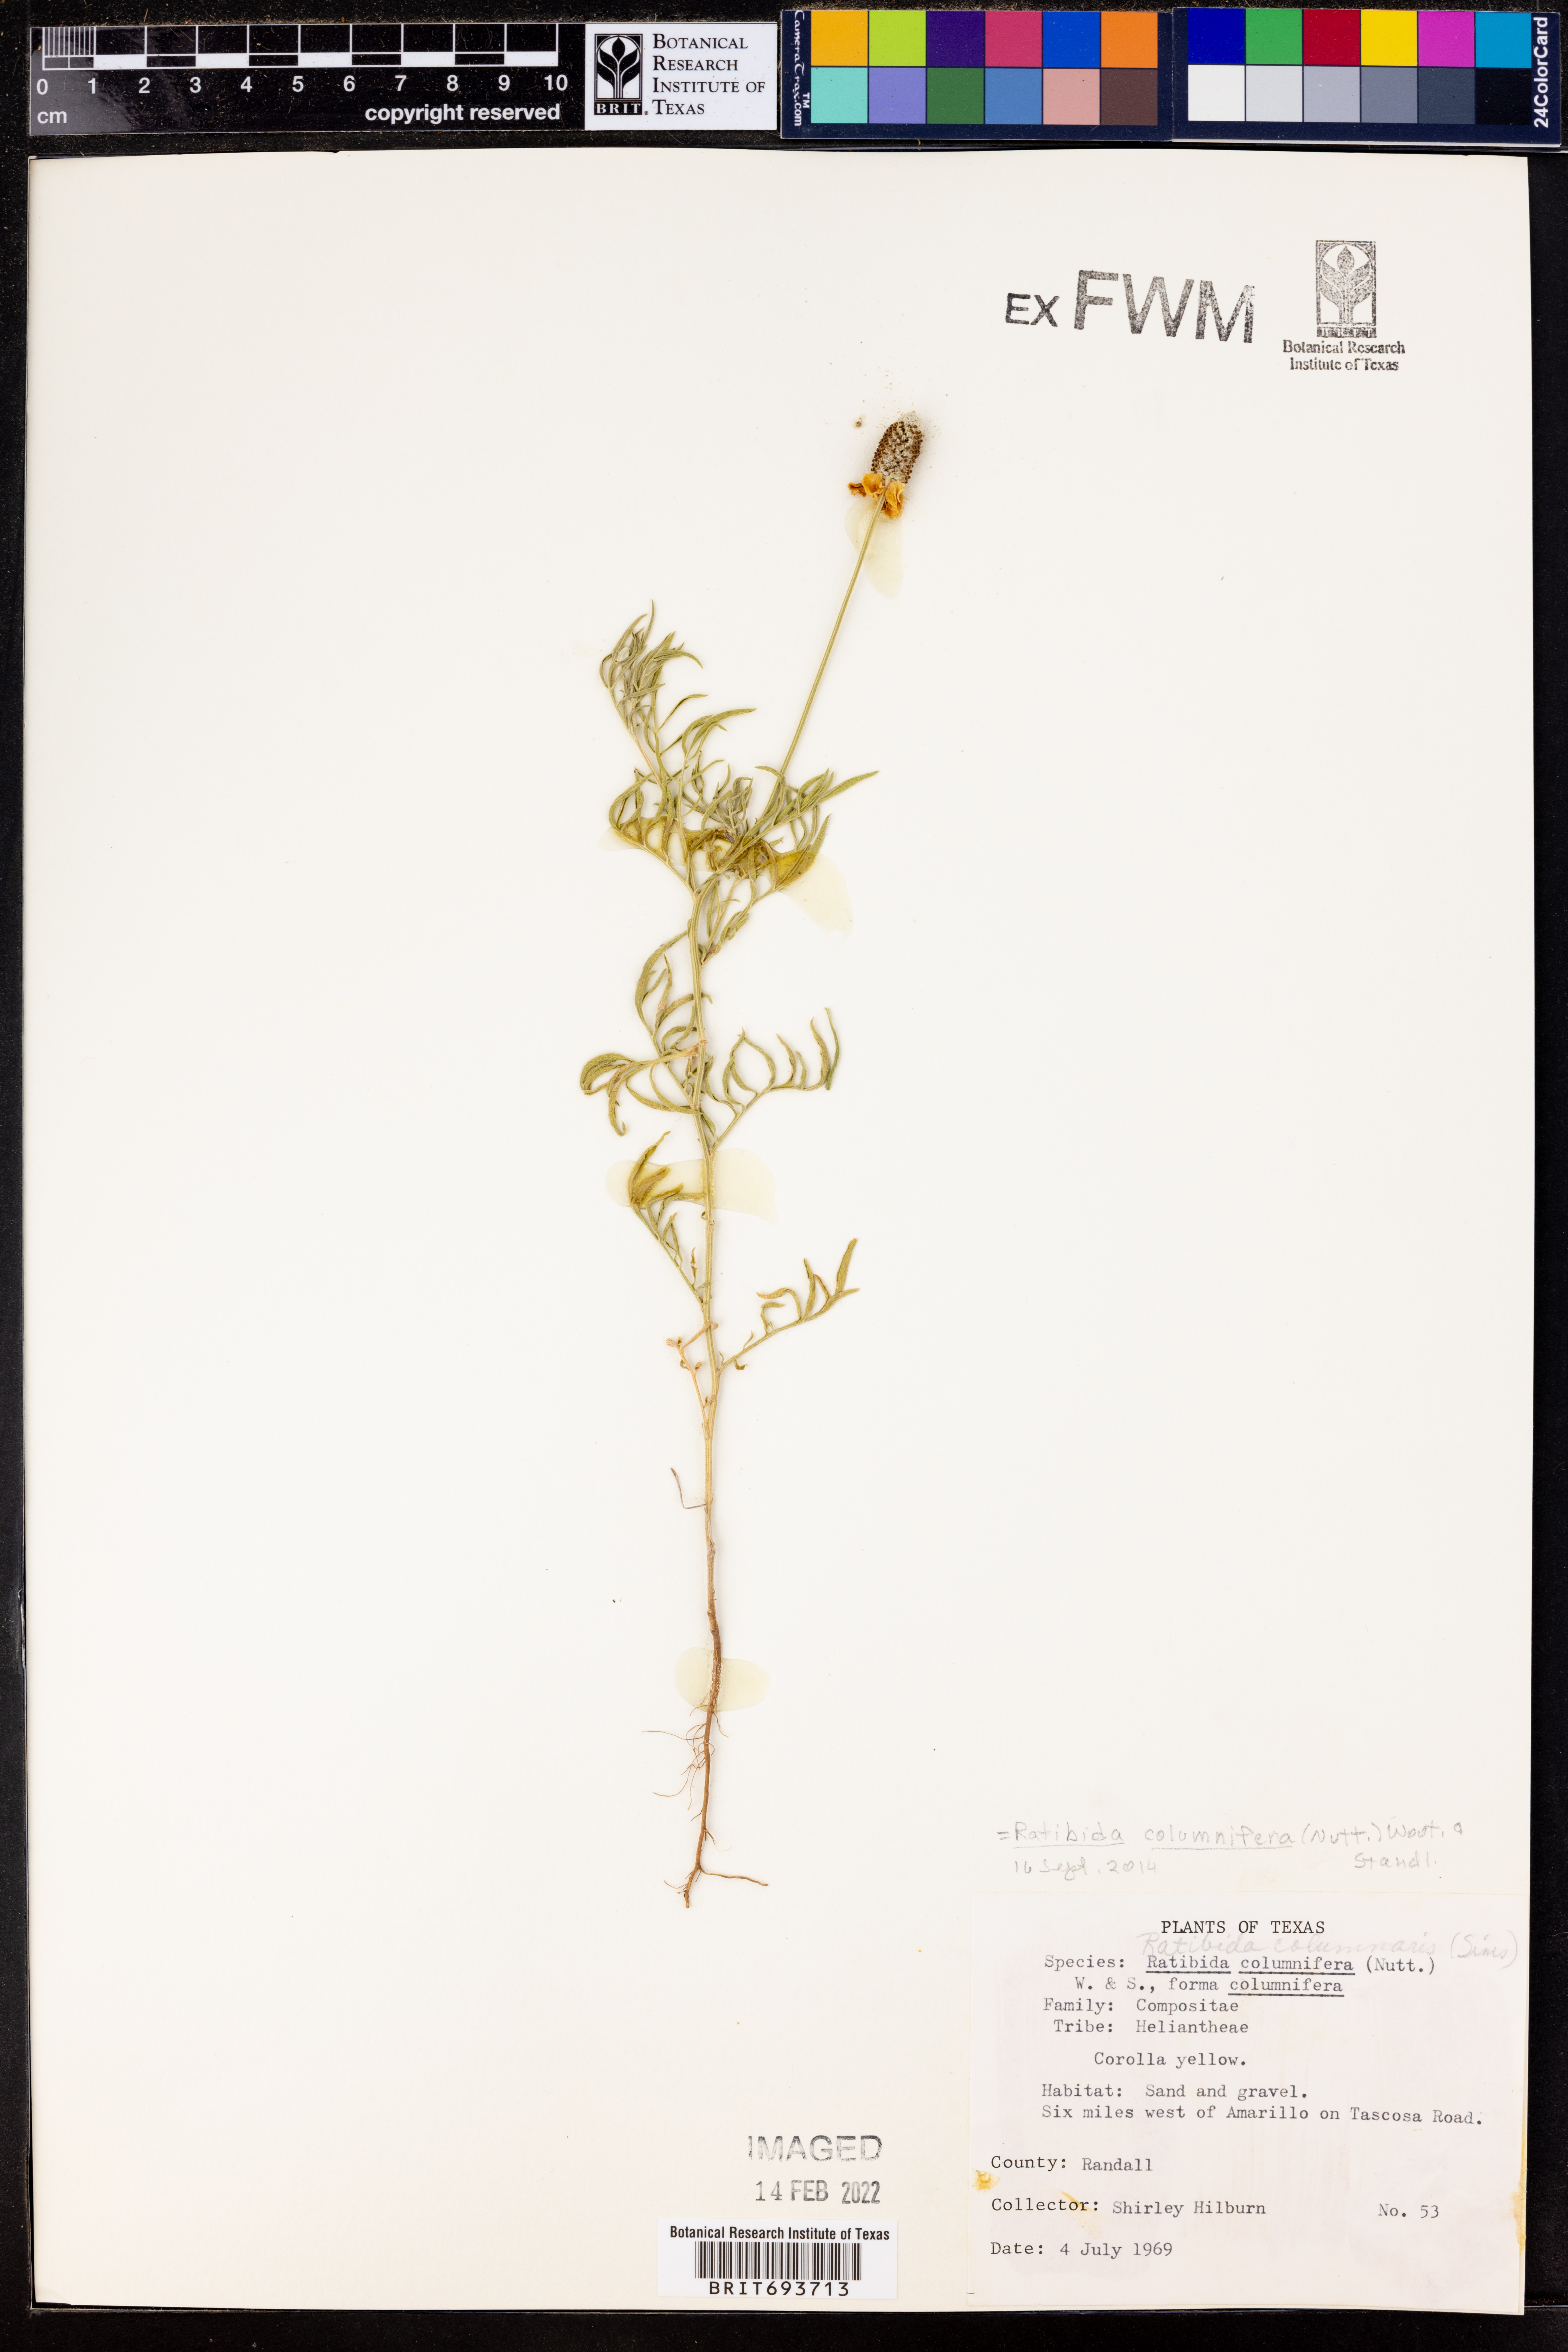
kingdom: Plantae
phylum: Tracheophyta
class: Magnoliopsida
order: Asterales
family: Asteraceae
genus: Ratibida
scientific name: Ratibida columnifera
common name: Prairie coneflower
